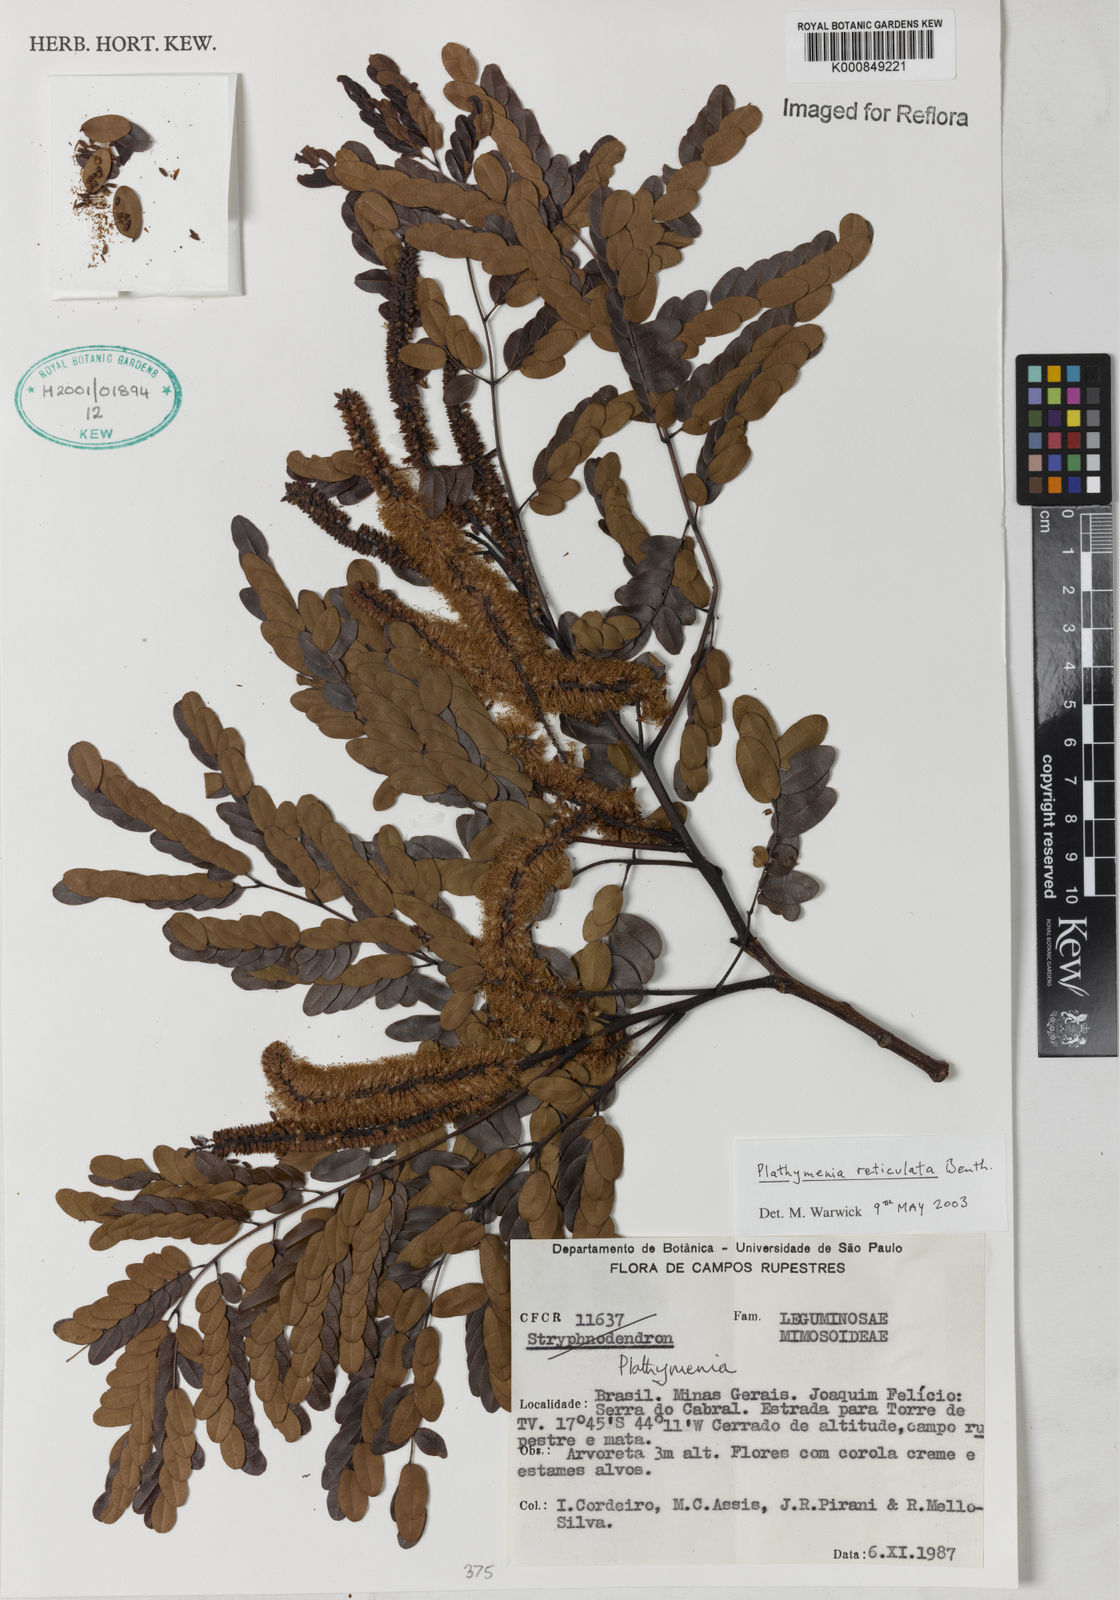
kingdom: Plantae
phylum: Tracheophyta
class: Magnoliopsida
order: Fabales
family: Fabaceae
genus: Plathymenia
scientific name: Plathymenia reticulata
